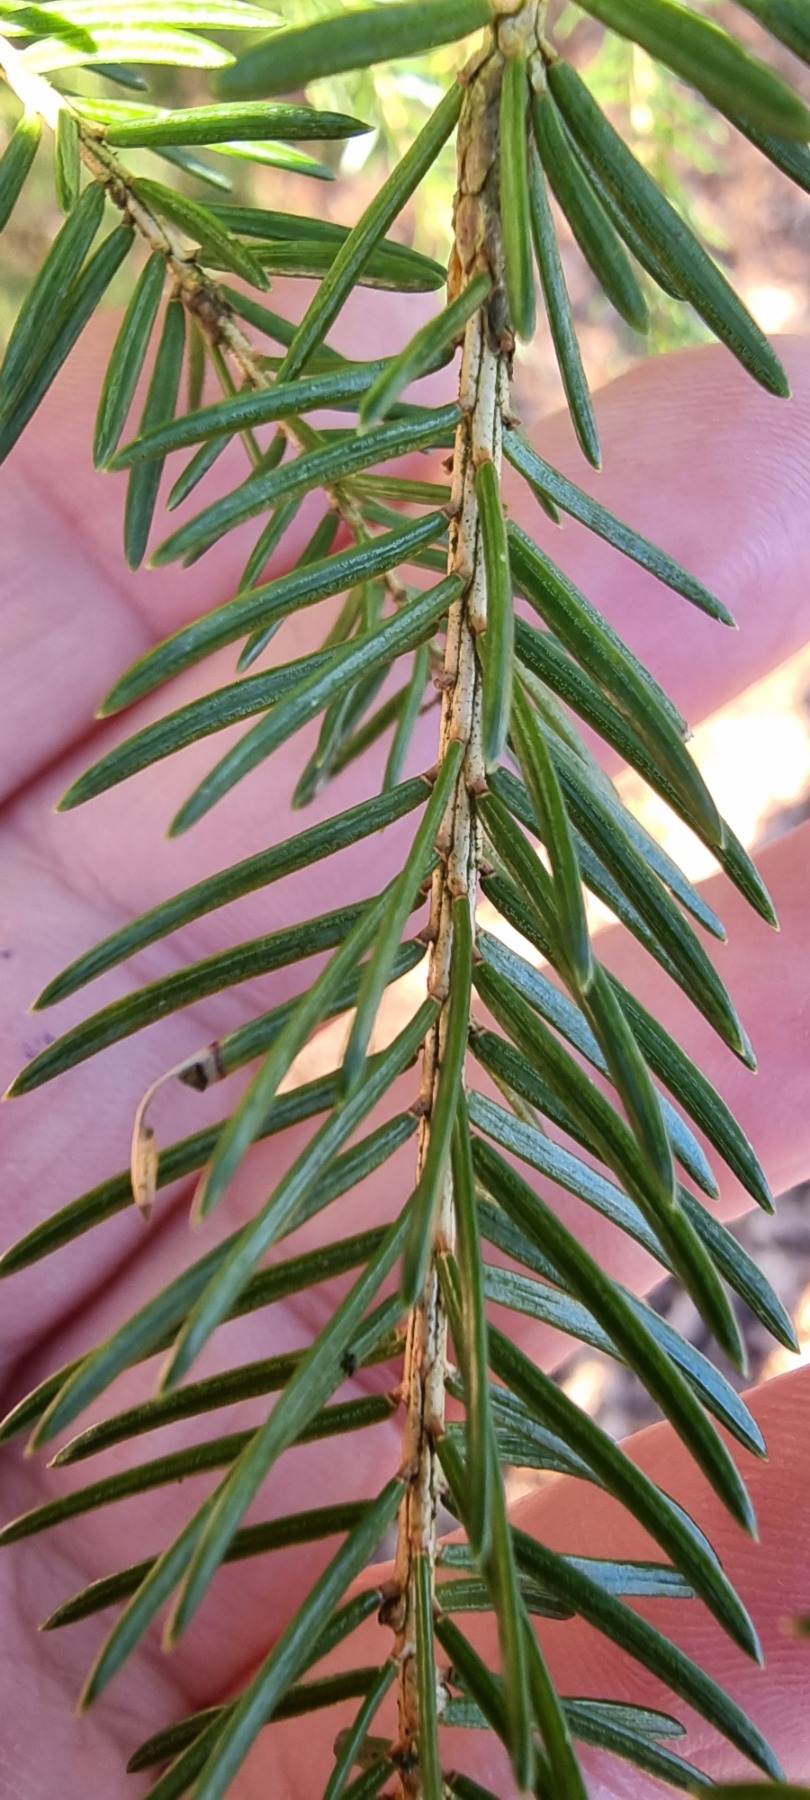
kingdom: Plantae
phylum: Tracheophyta
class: Pinopsida
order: Pinales
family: Pinaceae
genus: Picea
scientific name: Picea abies
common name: Rød-gran
